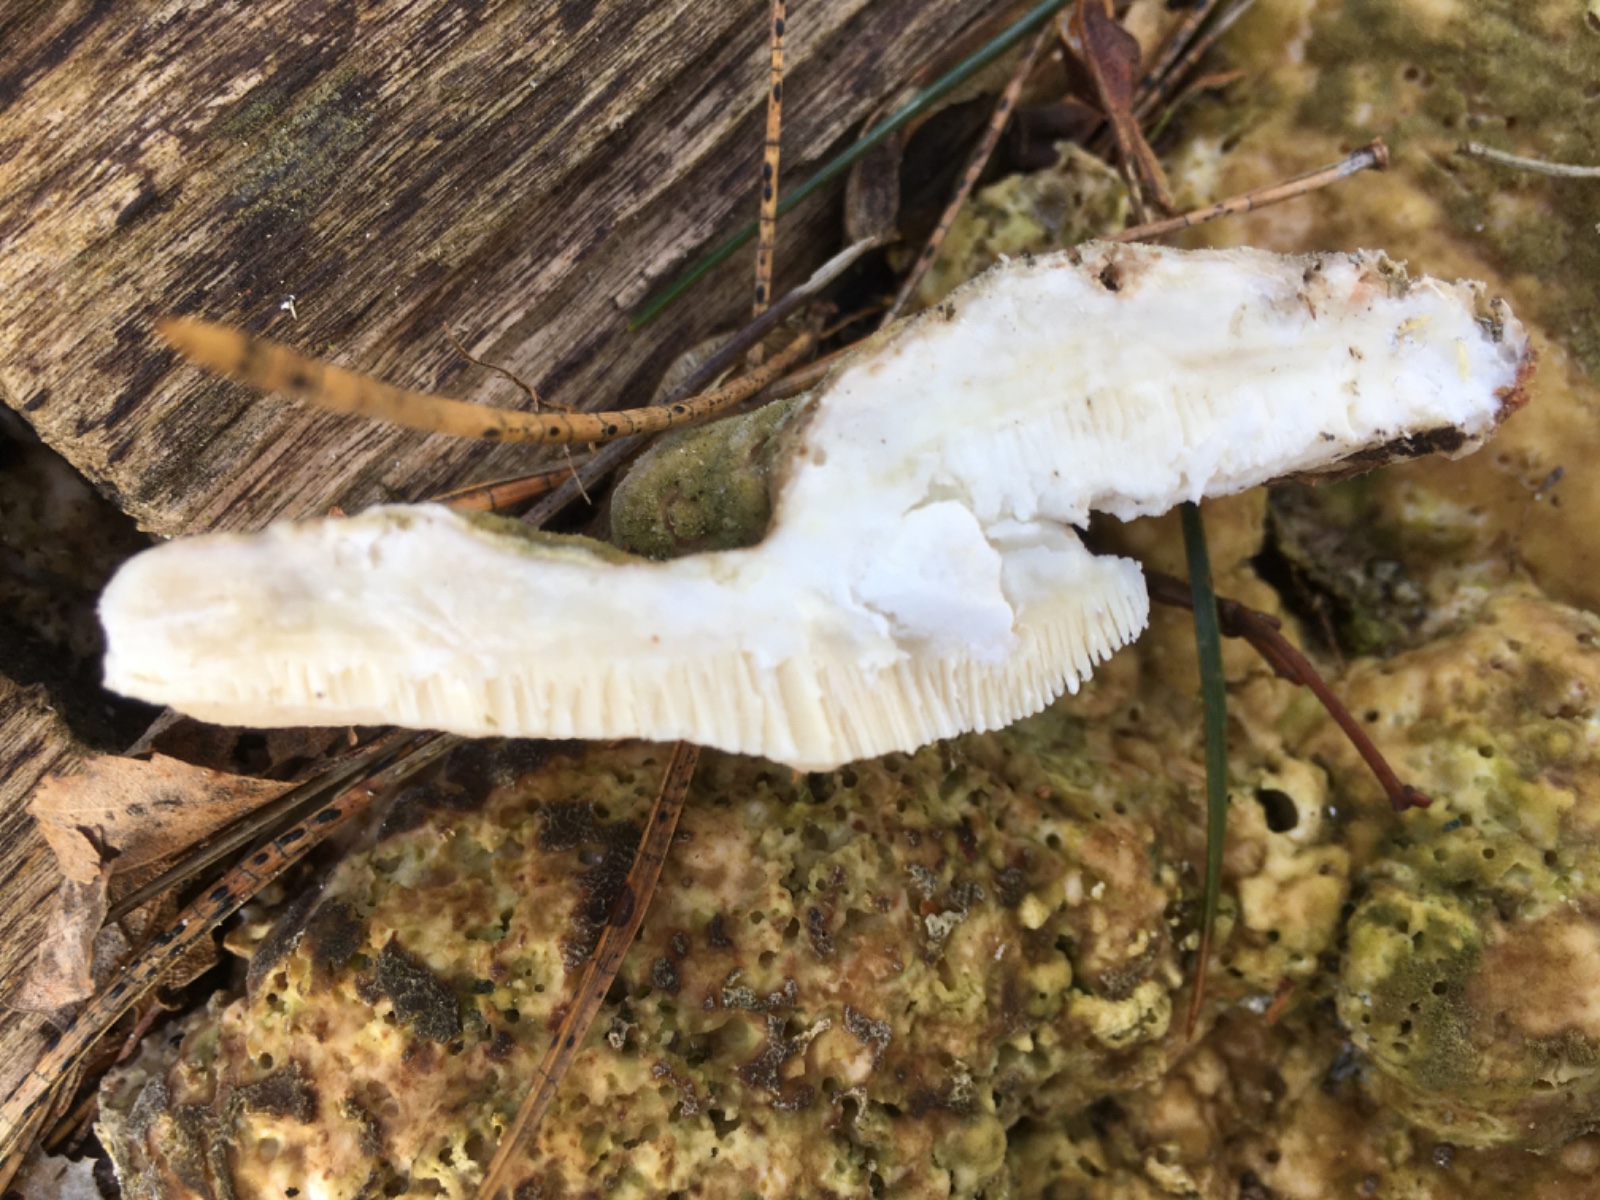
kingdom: Fungi
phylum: Basidiomycota
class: Agaricomycetes
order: Polyporales
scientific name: Polyporales
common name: poresvampordenen
